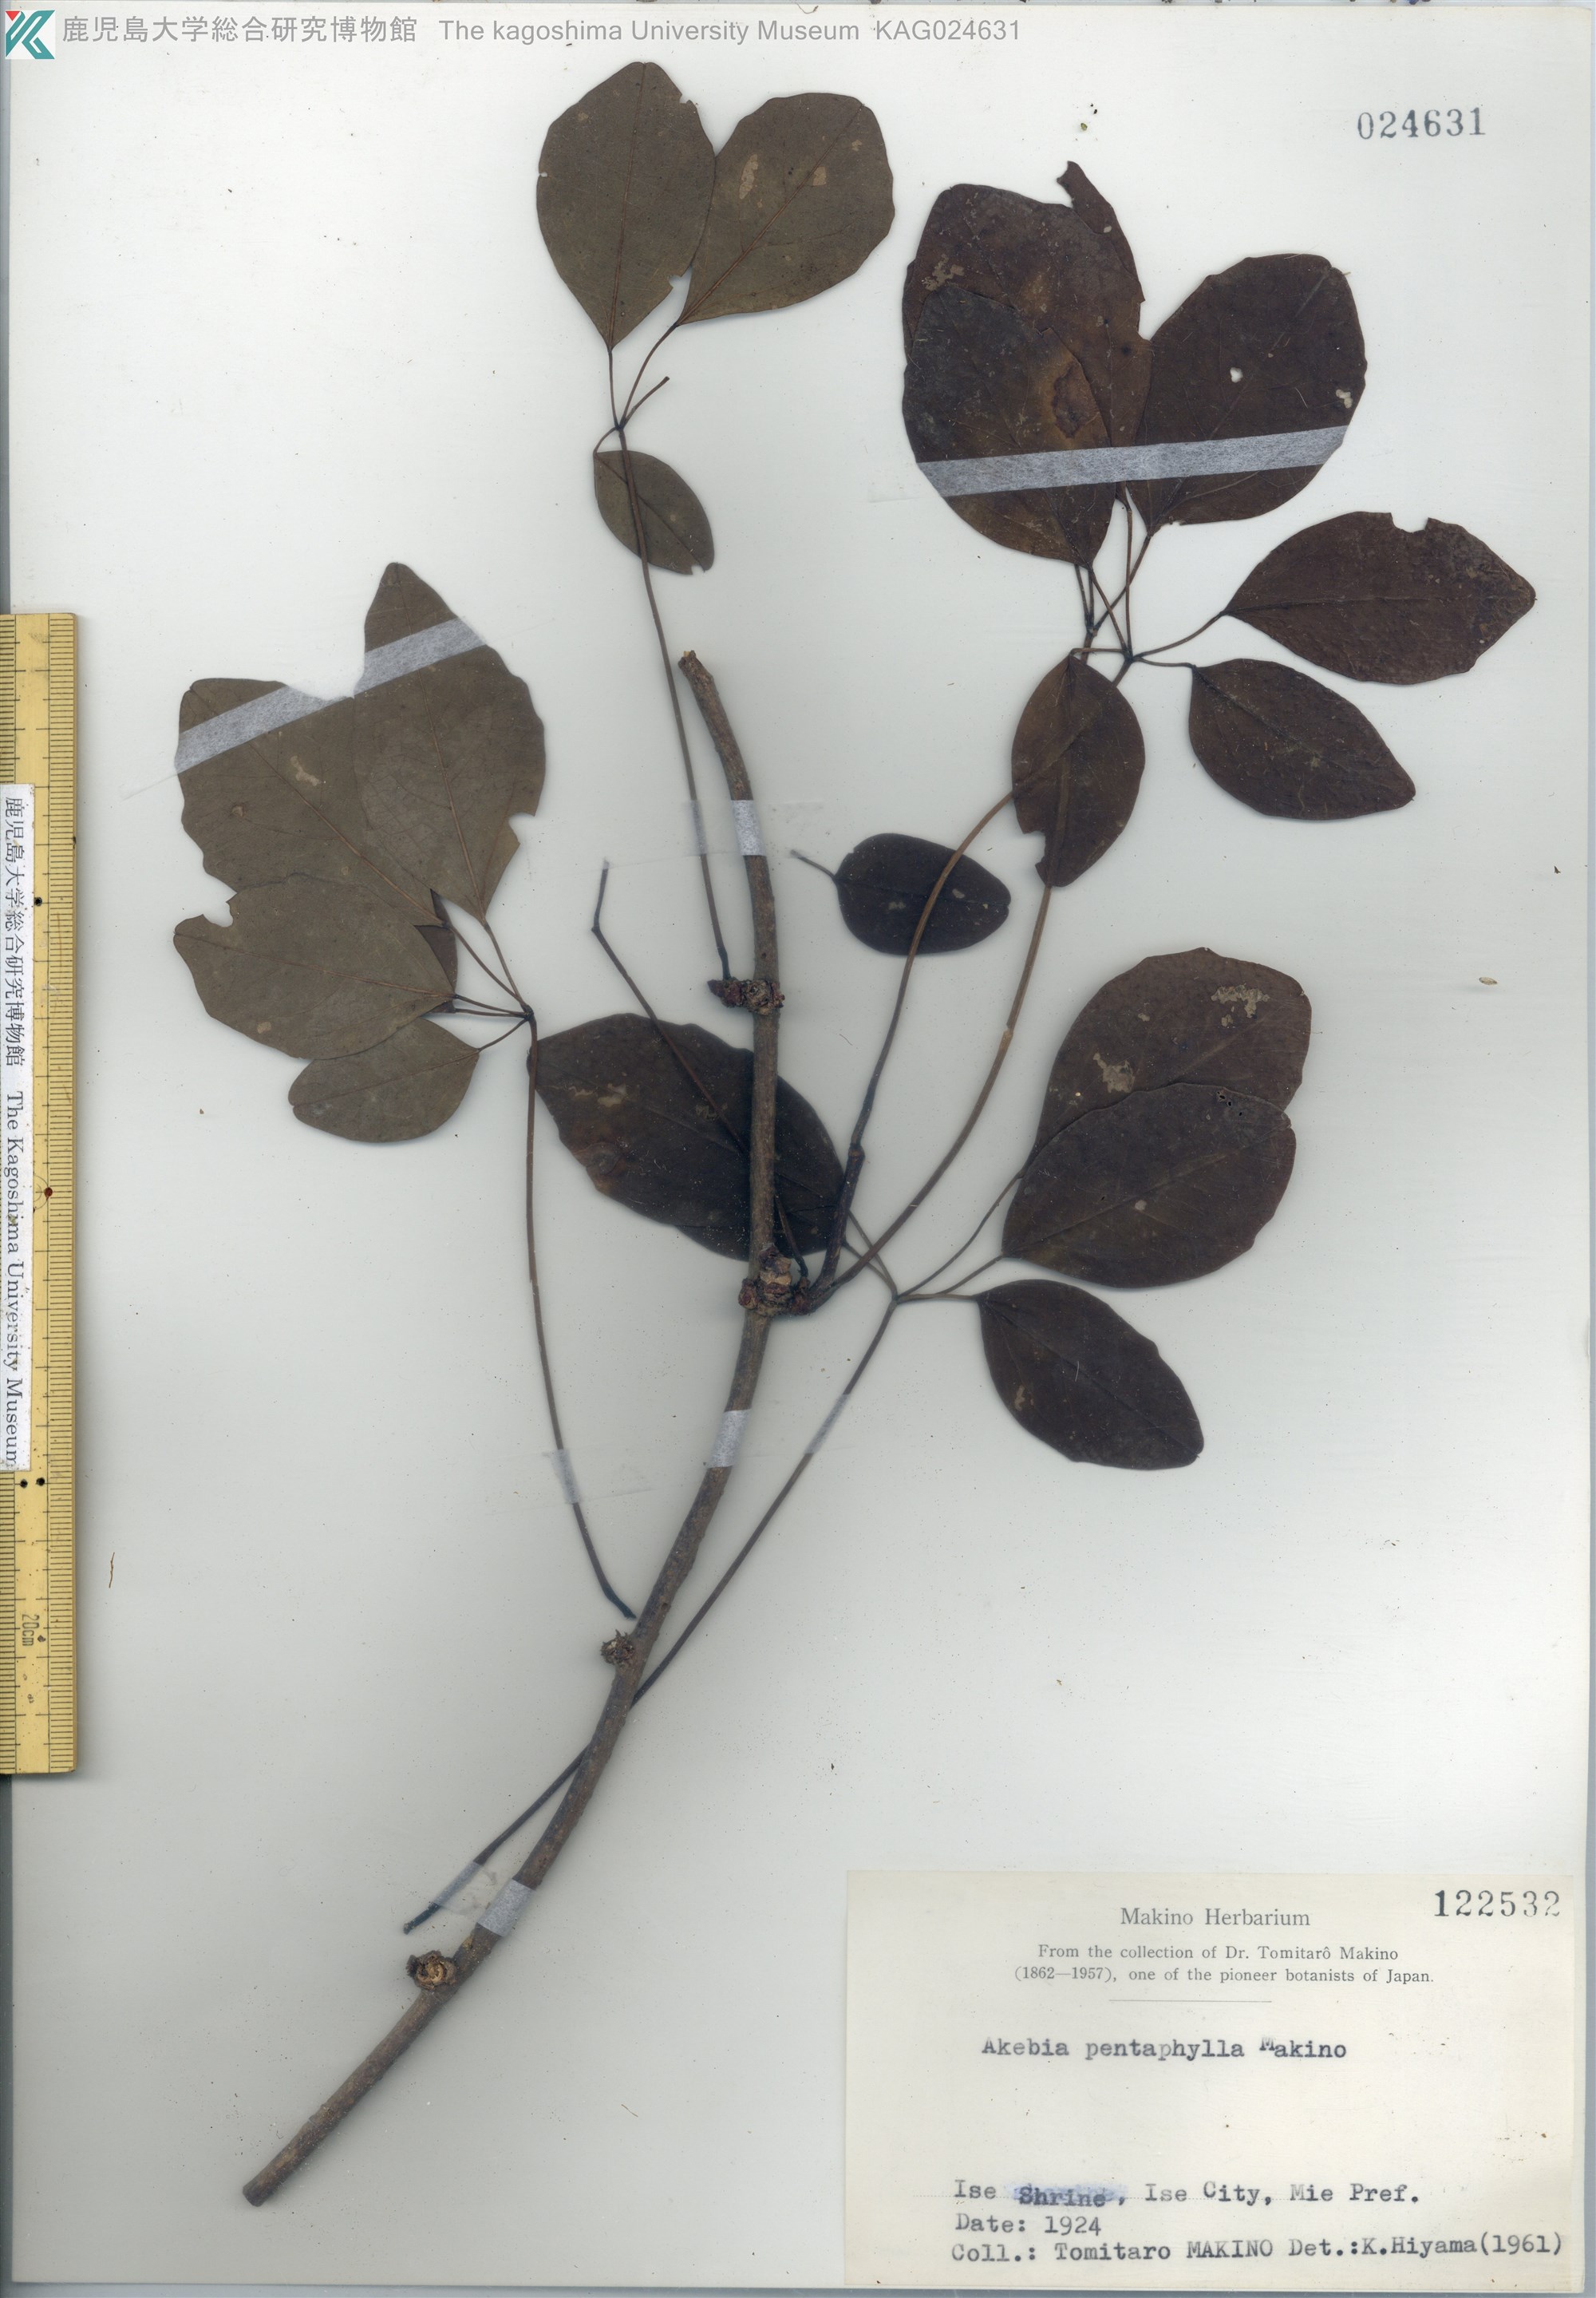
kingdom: Plantae
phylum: Tracheophyta
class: Magnoliopsida
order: Ranunculales
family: Lardizabalaceae
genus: Akebia
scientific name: Akebia pentaphylla
